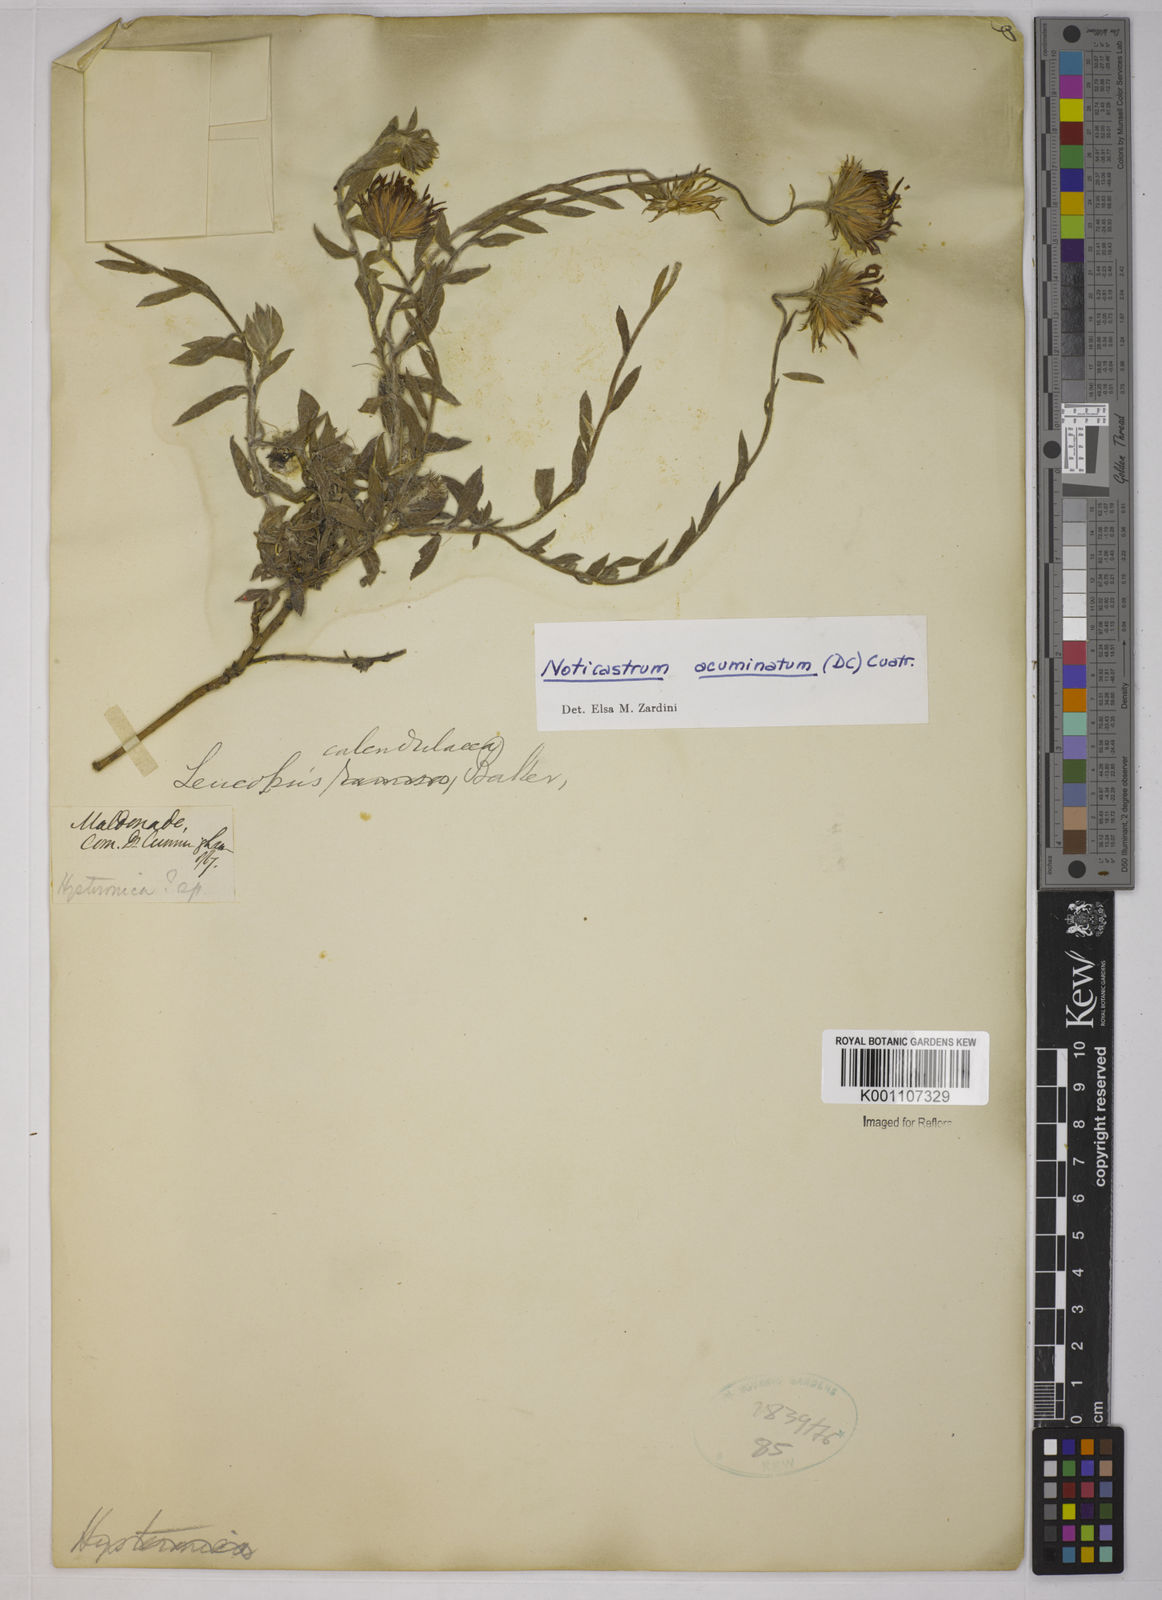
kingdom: Plantae
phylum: Tracheophyta
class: Magnoliopsida
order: Asterales
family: Asteraceae
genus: Noticastrum
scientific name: Noticastrum acuminatum
